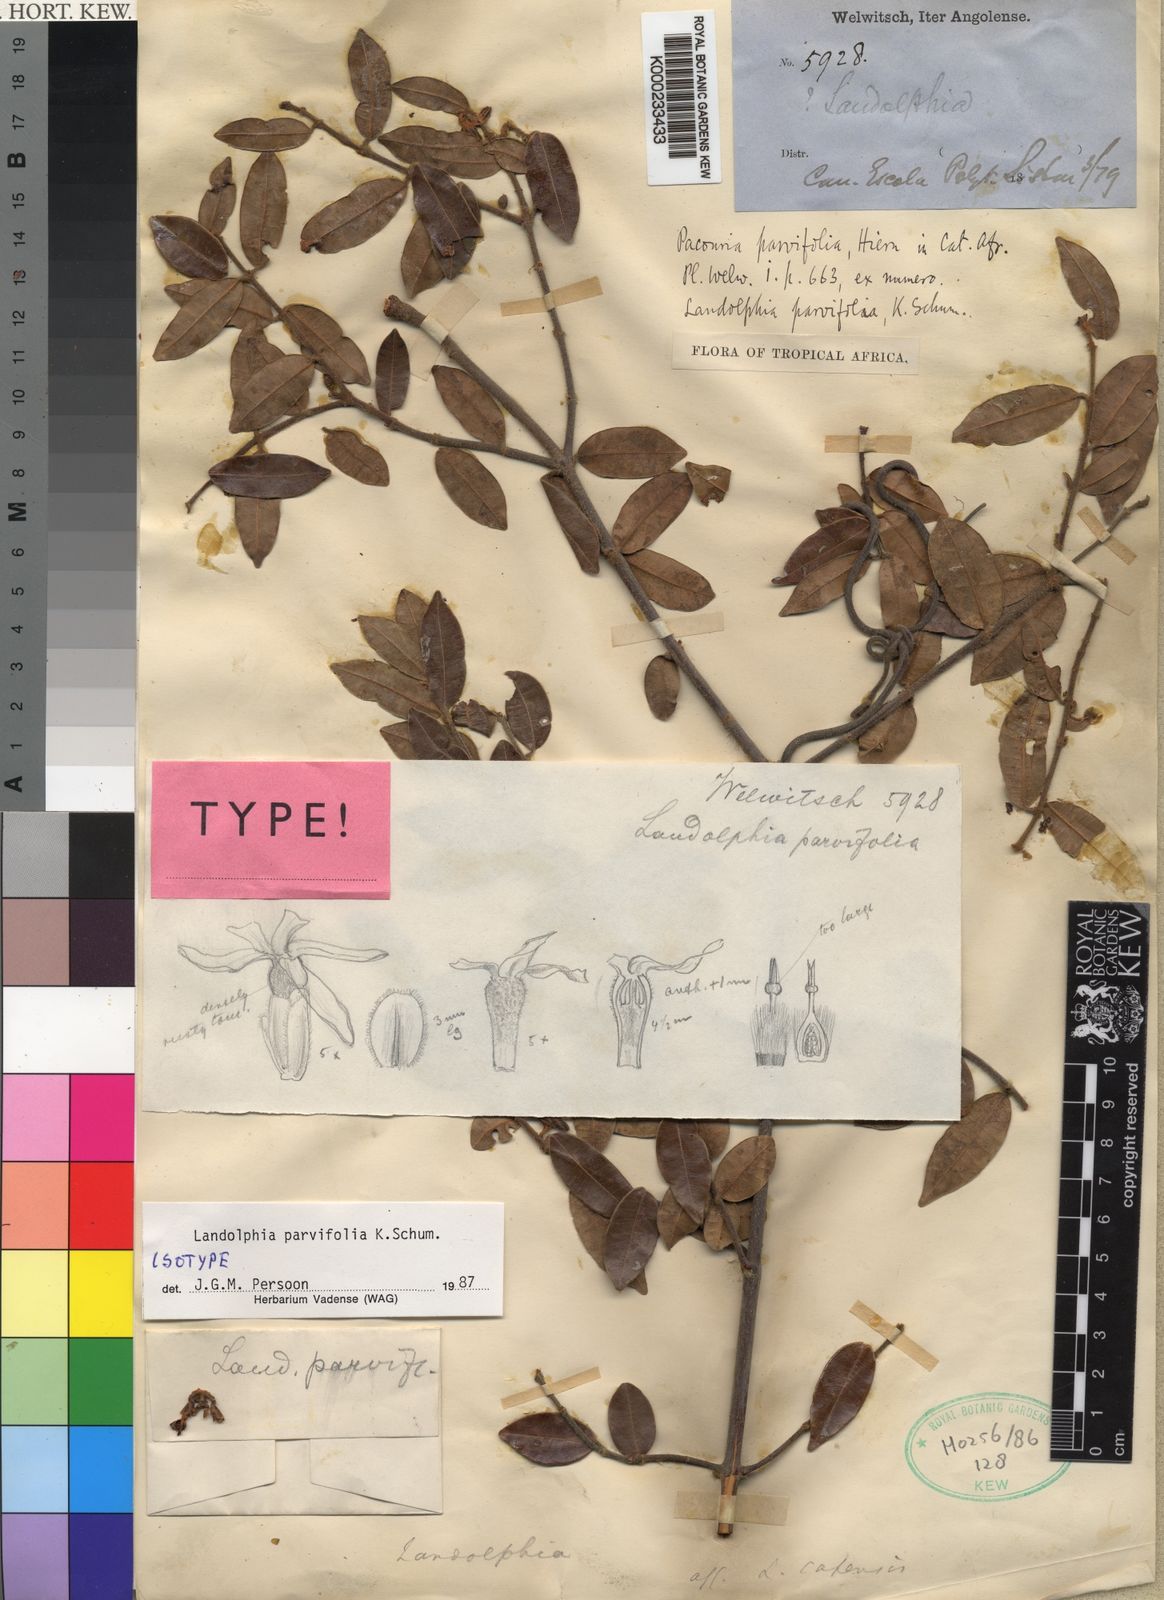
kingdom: Plantae
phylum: Tracheophyta
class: Magnoliopsida
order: Gentianales
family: Apocynaceae
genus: Landolphia
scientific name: Landolphia
